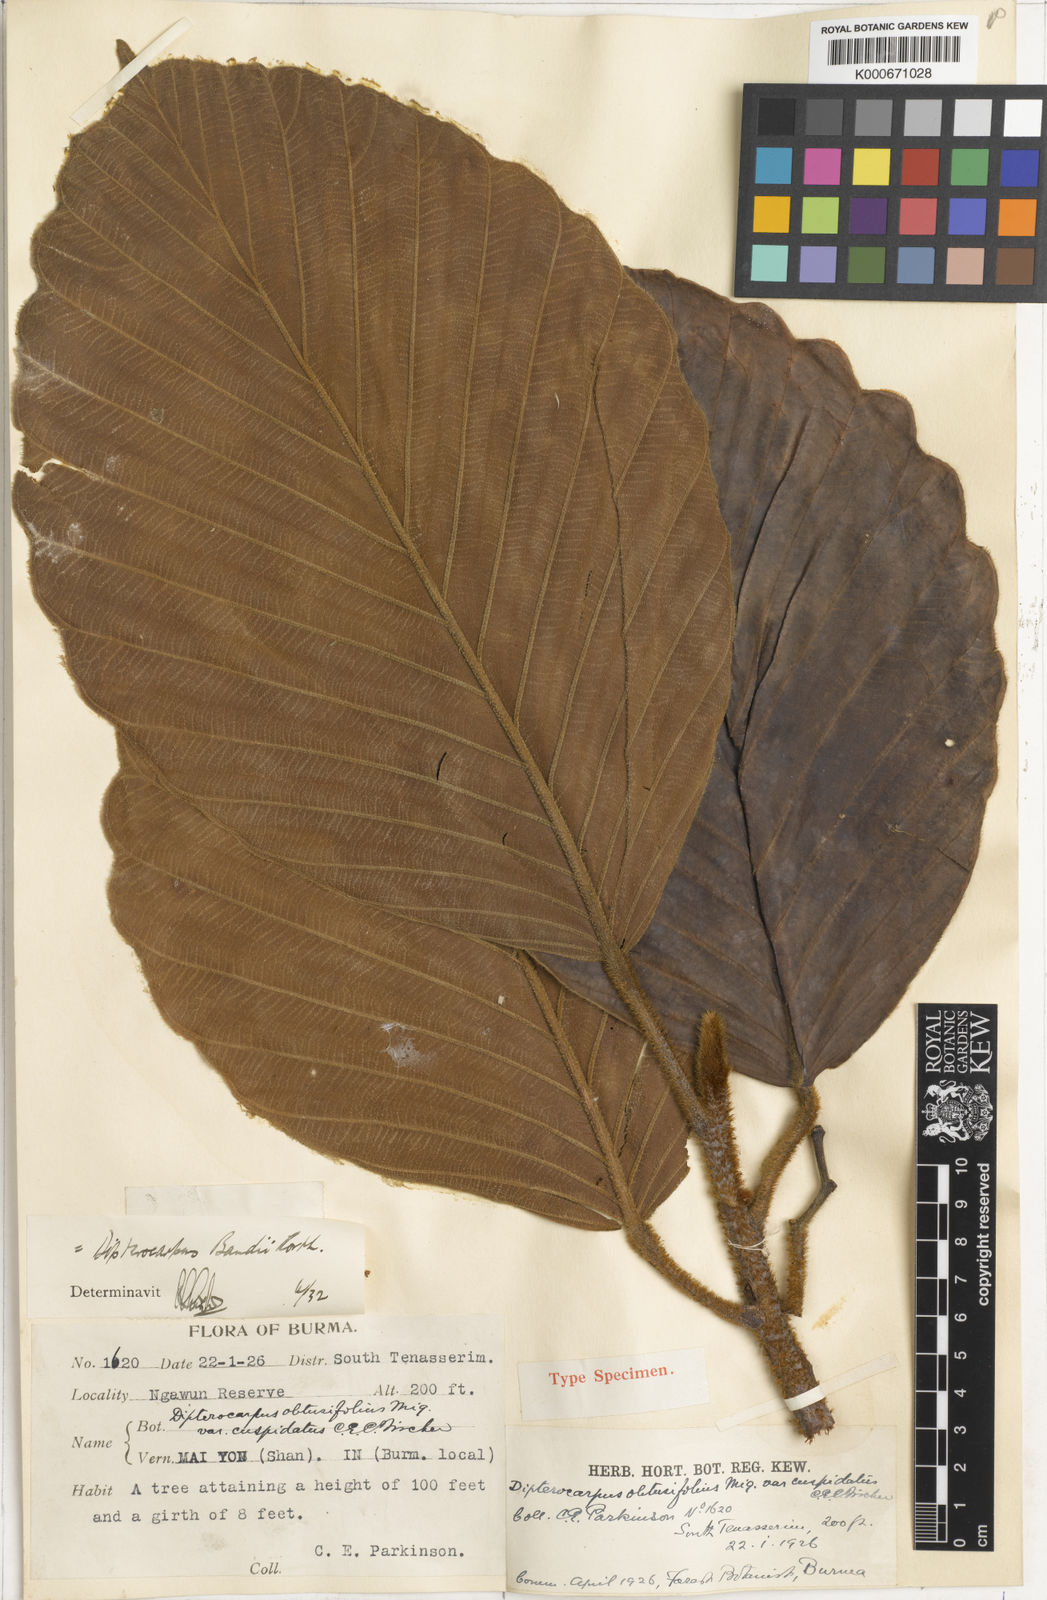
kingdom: Plantae
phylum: Tracheophyta
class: Magnoliopsida
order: Malvales
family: Dipterocarpaceae
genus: Dipterocarpus
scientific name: Dipterocarpus baudii
